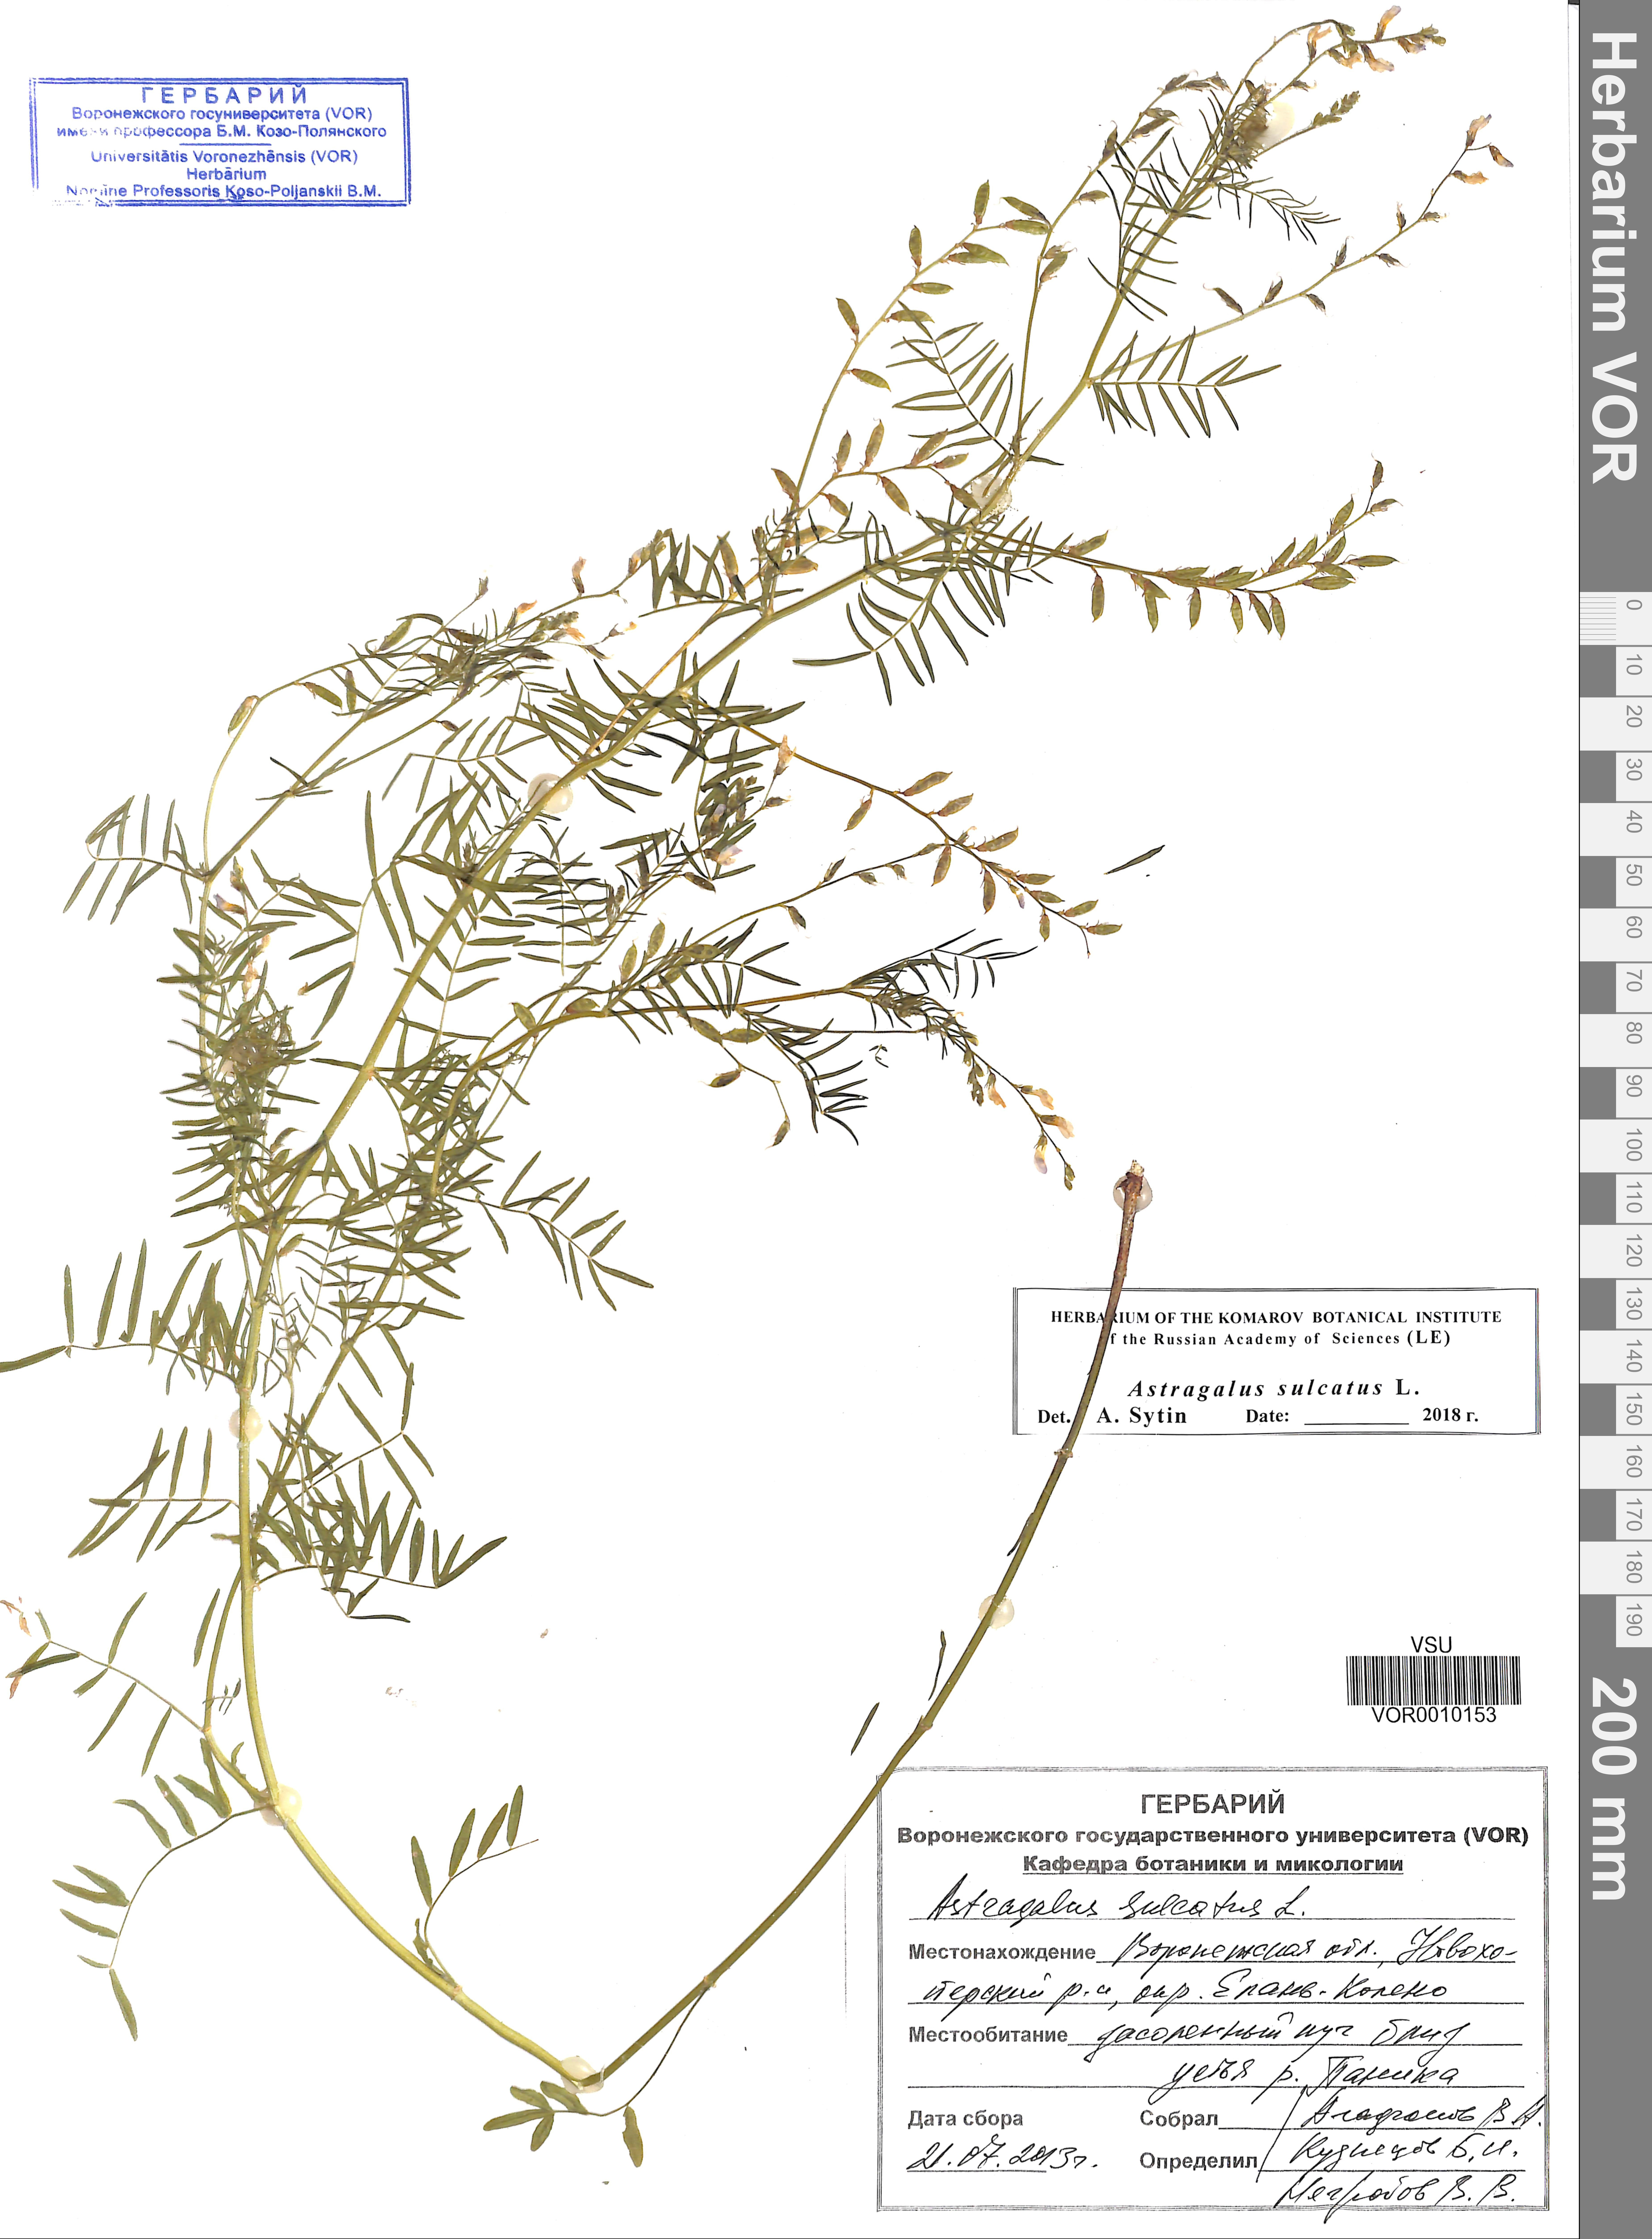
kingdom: Plantae
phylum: Tracheophyta
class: Magnoliopsida
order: Fabales
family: Fabaceae
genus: Astragalus
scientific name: Astragalus sulcatus
